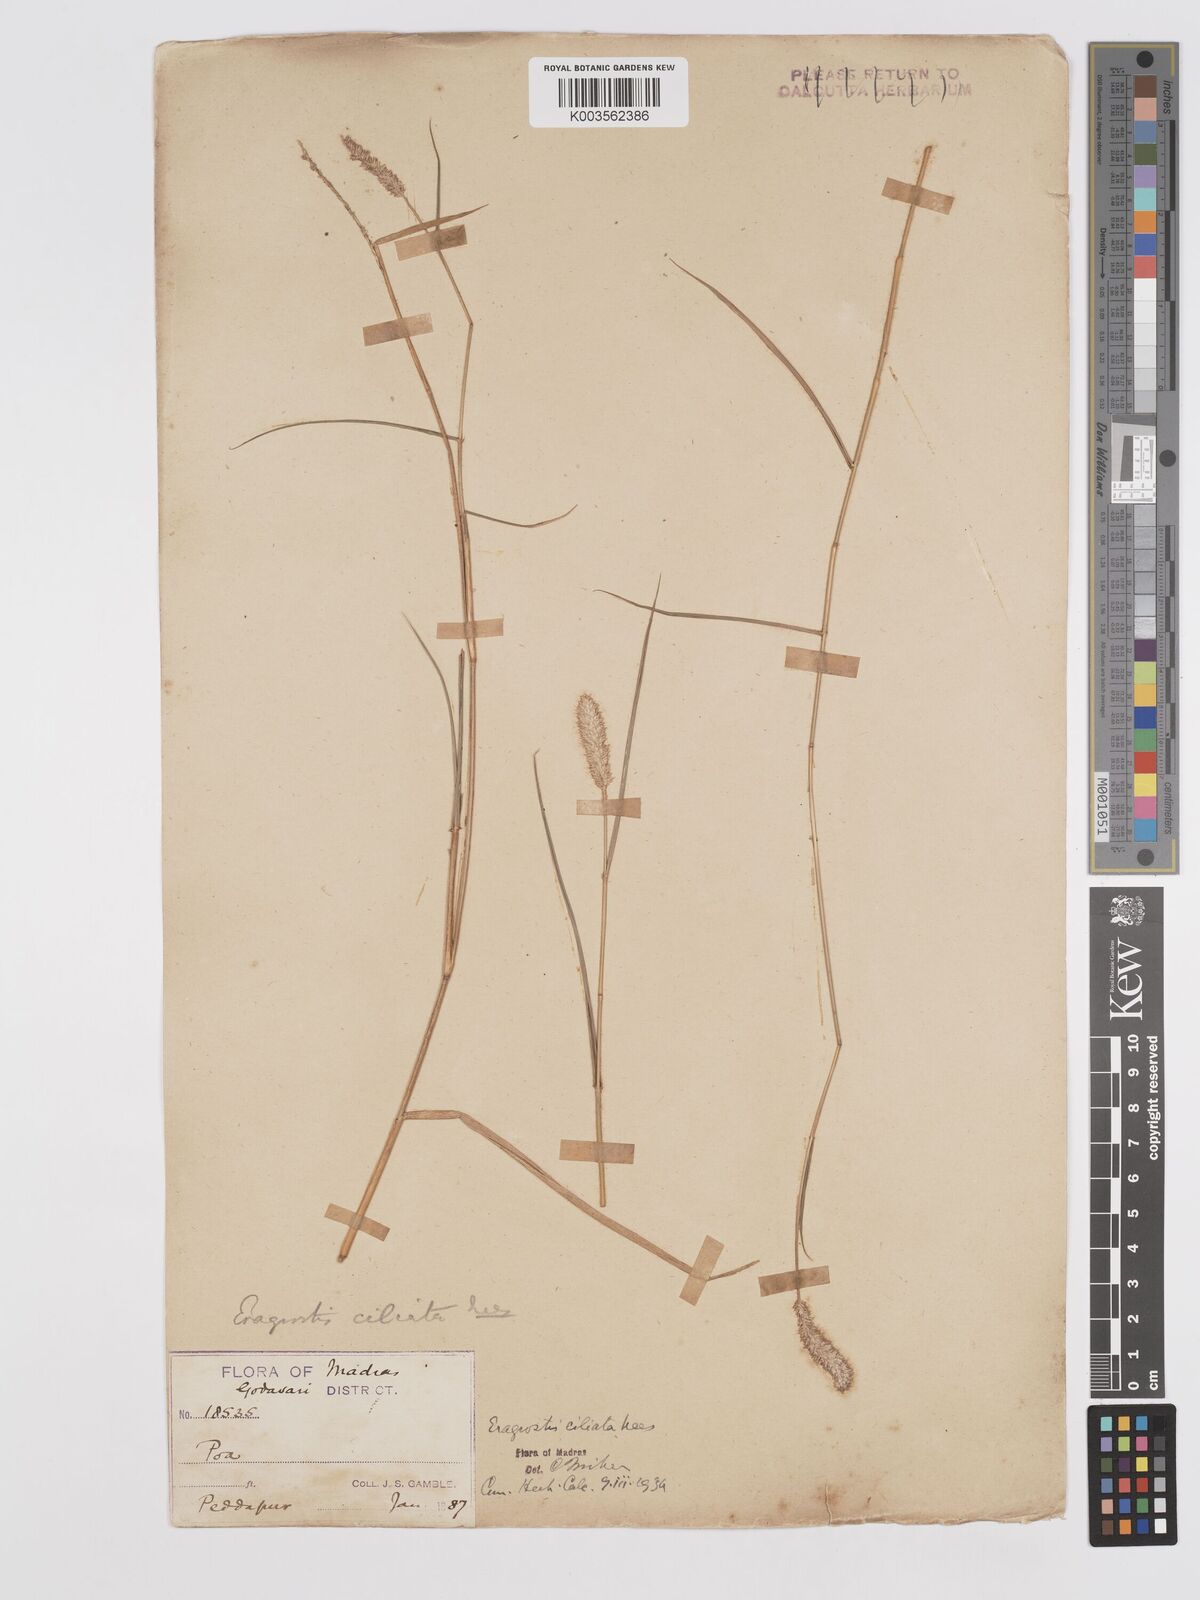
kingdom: Plantae
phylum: Tracheophyta
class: Liliopsida
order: Poales
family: Poaceae
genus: Eragrostis
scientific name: Eragrostis ciliata
